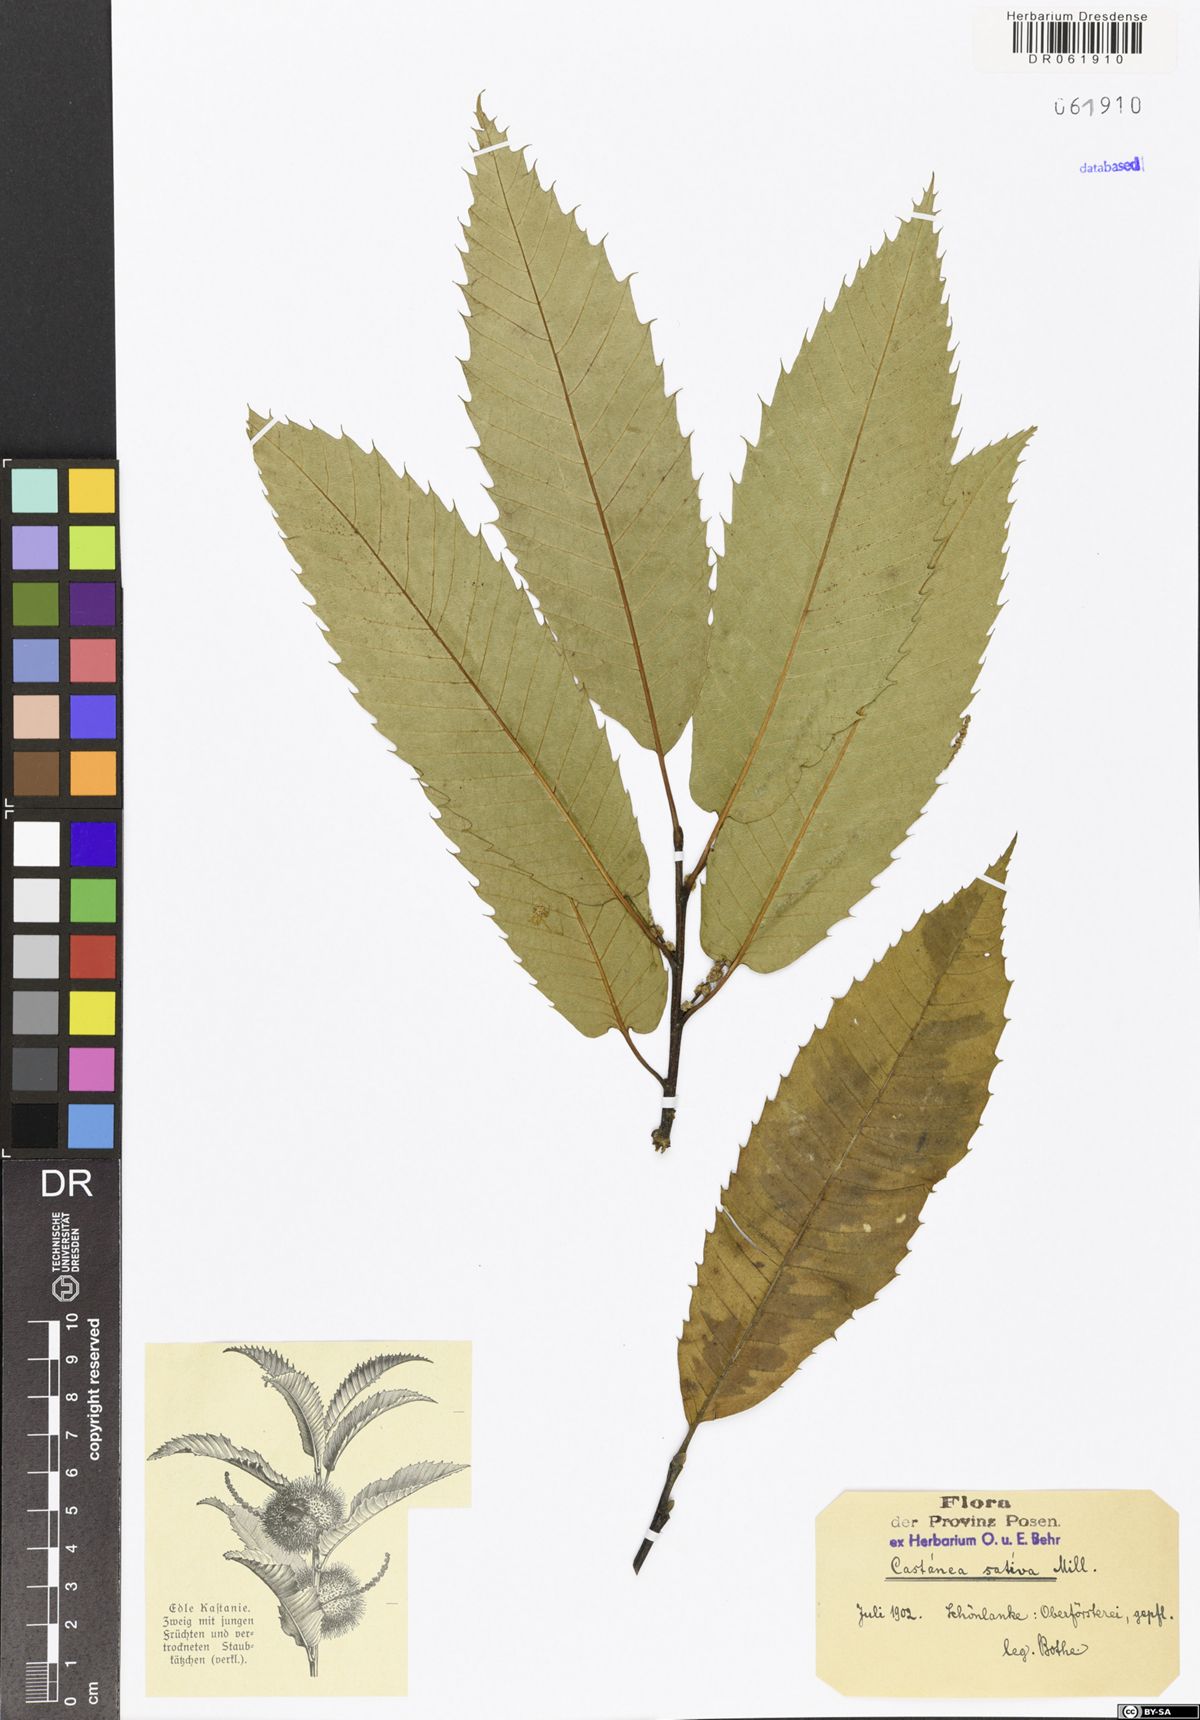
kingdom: Plantae
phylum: Tracheophyta
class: Magnoliopsida
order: Fagales
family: Fagaceae
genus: Castanea
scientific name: Castanea sativa
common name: Sweet chestnut
